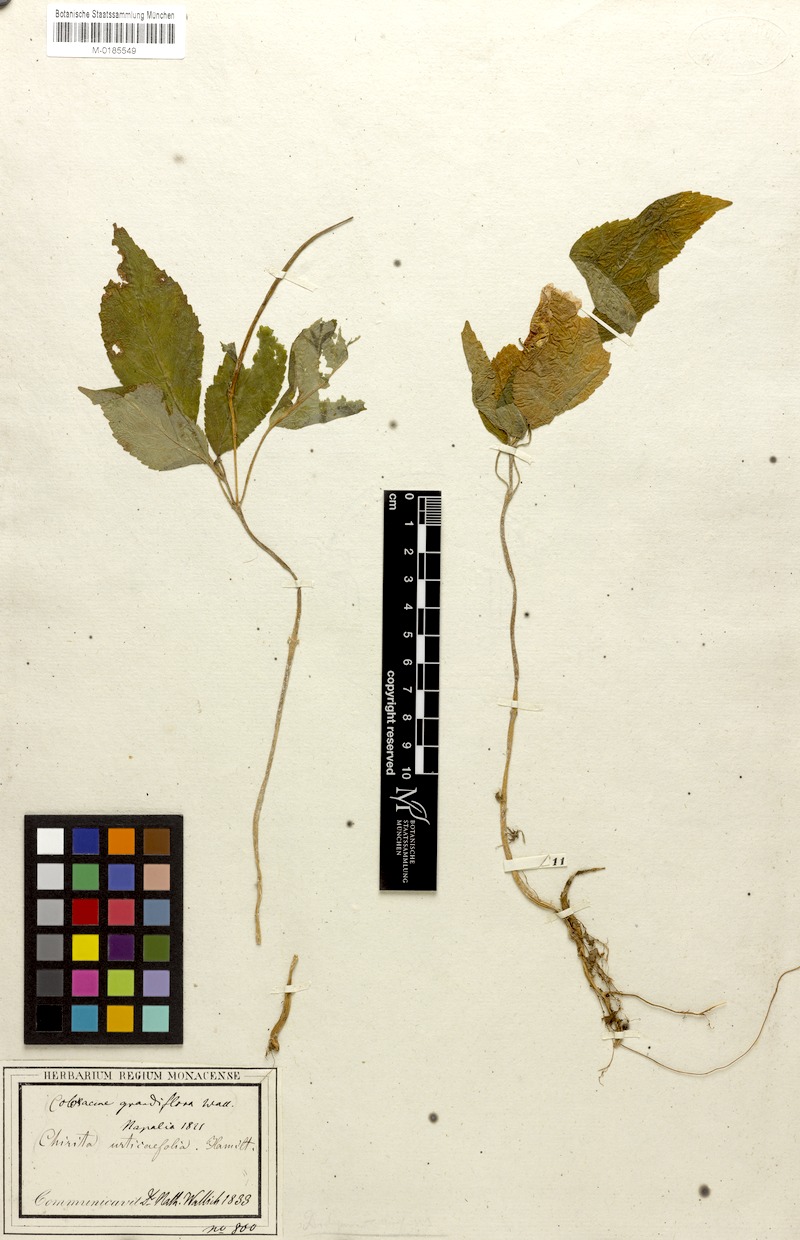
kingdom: Plantae
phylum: Tracheophyta
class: Magnoliopsida
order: Lamiales
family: Gesneriaceae
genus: Henckelia
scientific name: Henckelia urticifolia
